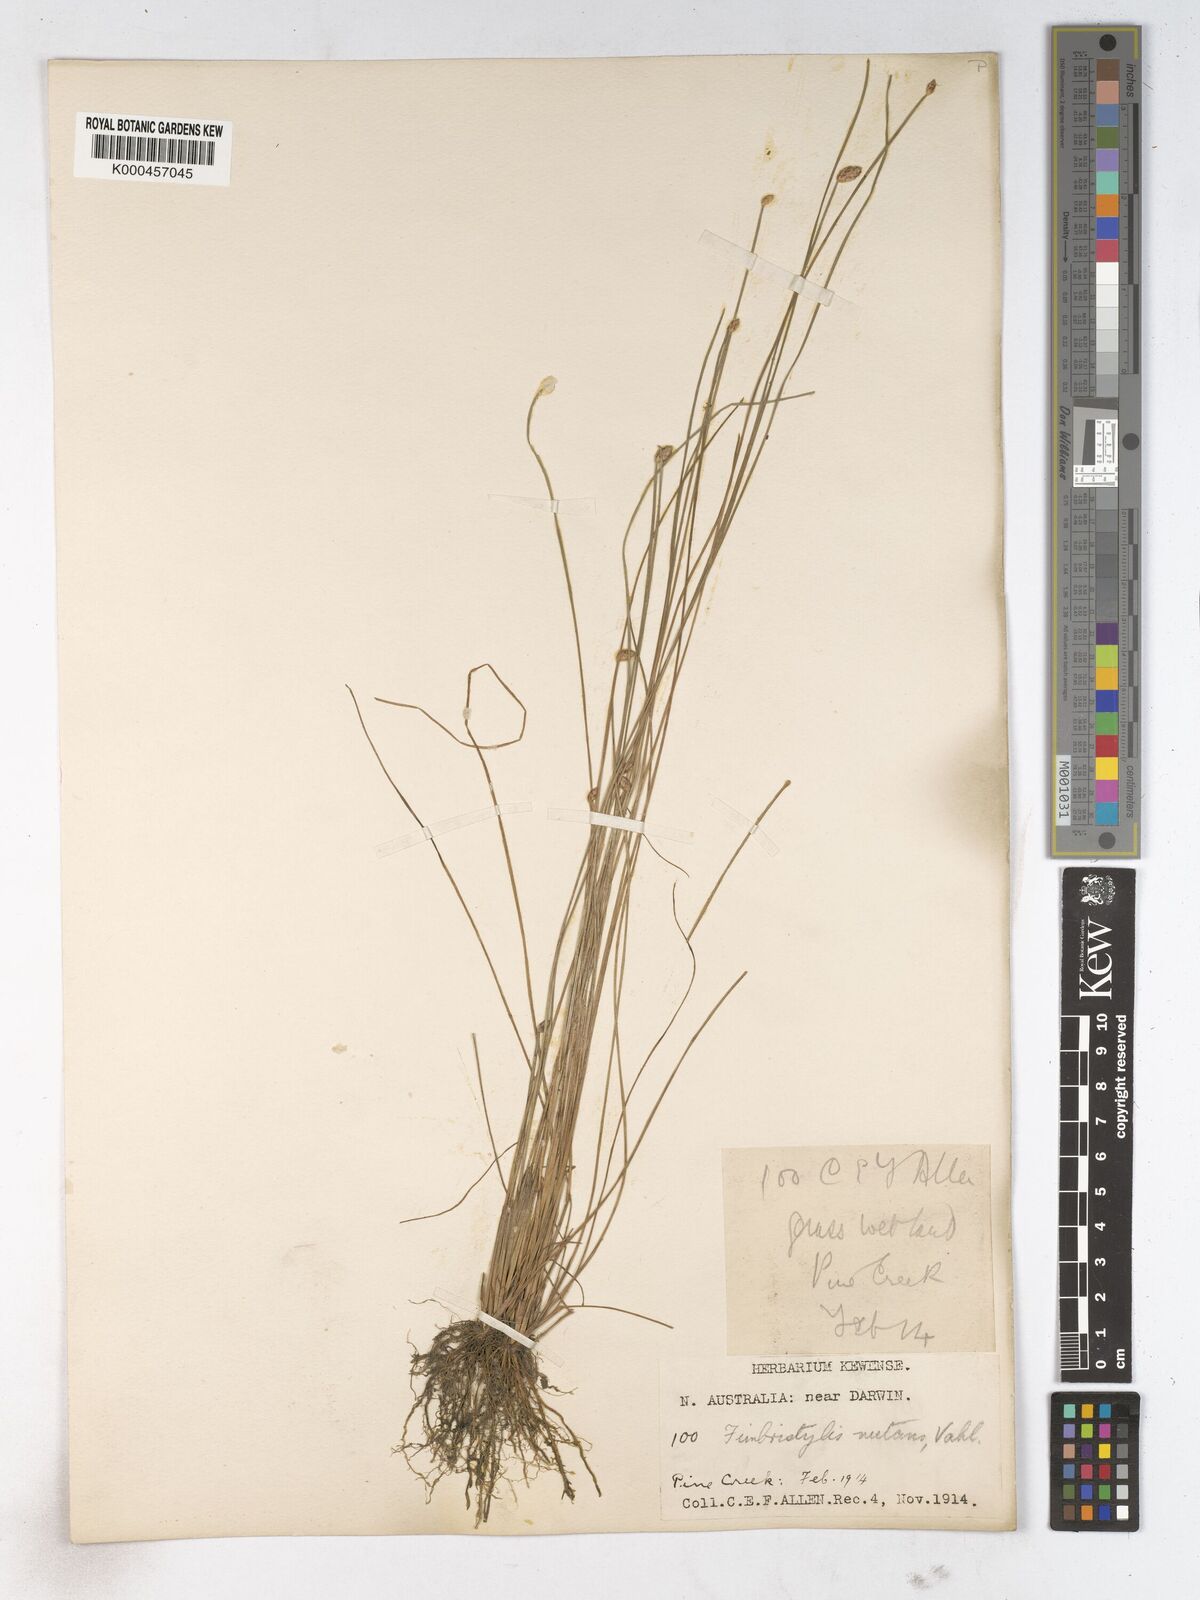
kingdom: Plantae
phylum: Tracheophyta
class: Liliopsida
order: Poales
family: Cyperaceae
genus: Fimbristylis
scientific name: Fimbristylis nutans
